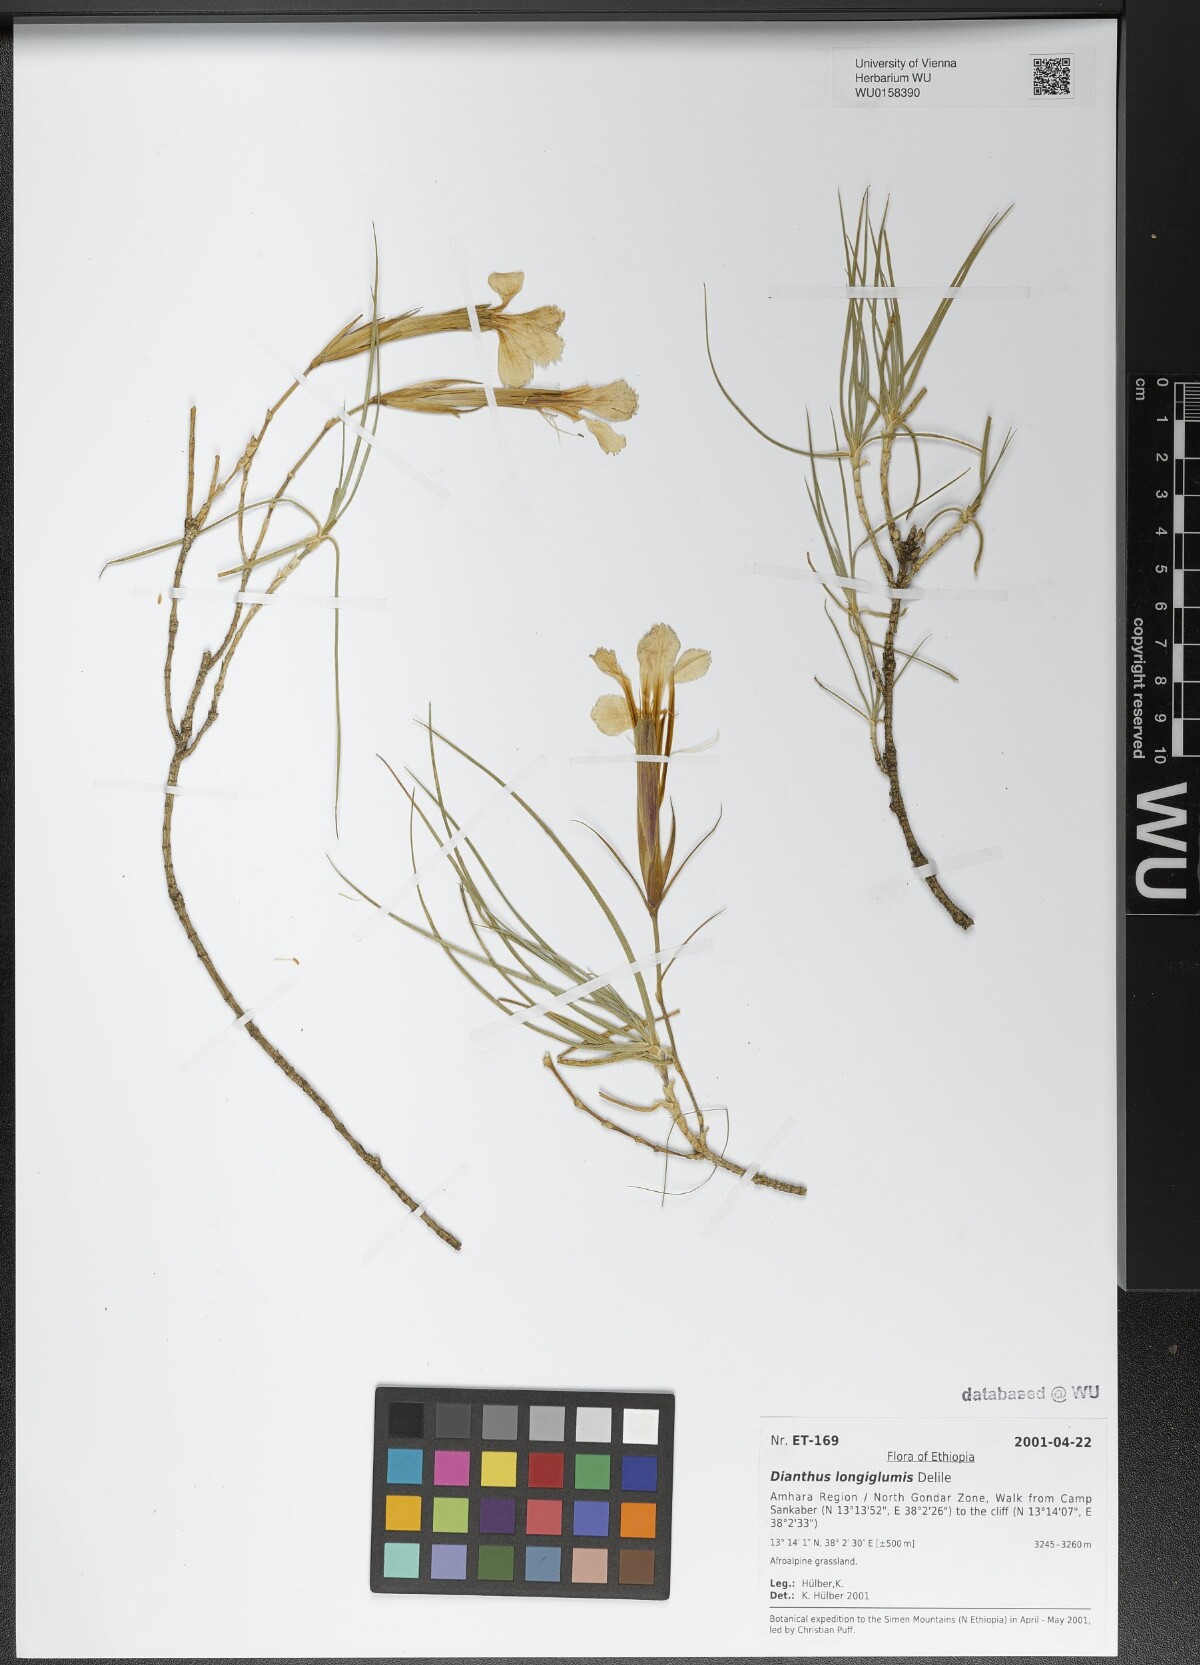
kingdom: Plantae
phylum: Tracheophyta
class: Magnoliopsida
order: Caryophyllales
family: Caryophyllaceae
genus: Dianthus
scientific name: Dianthus longiglumis
